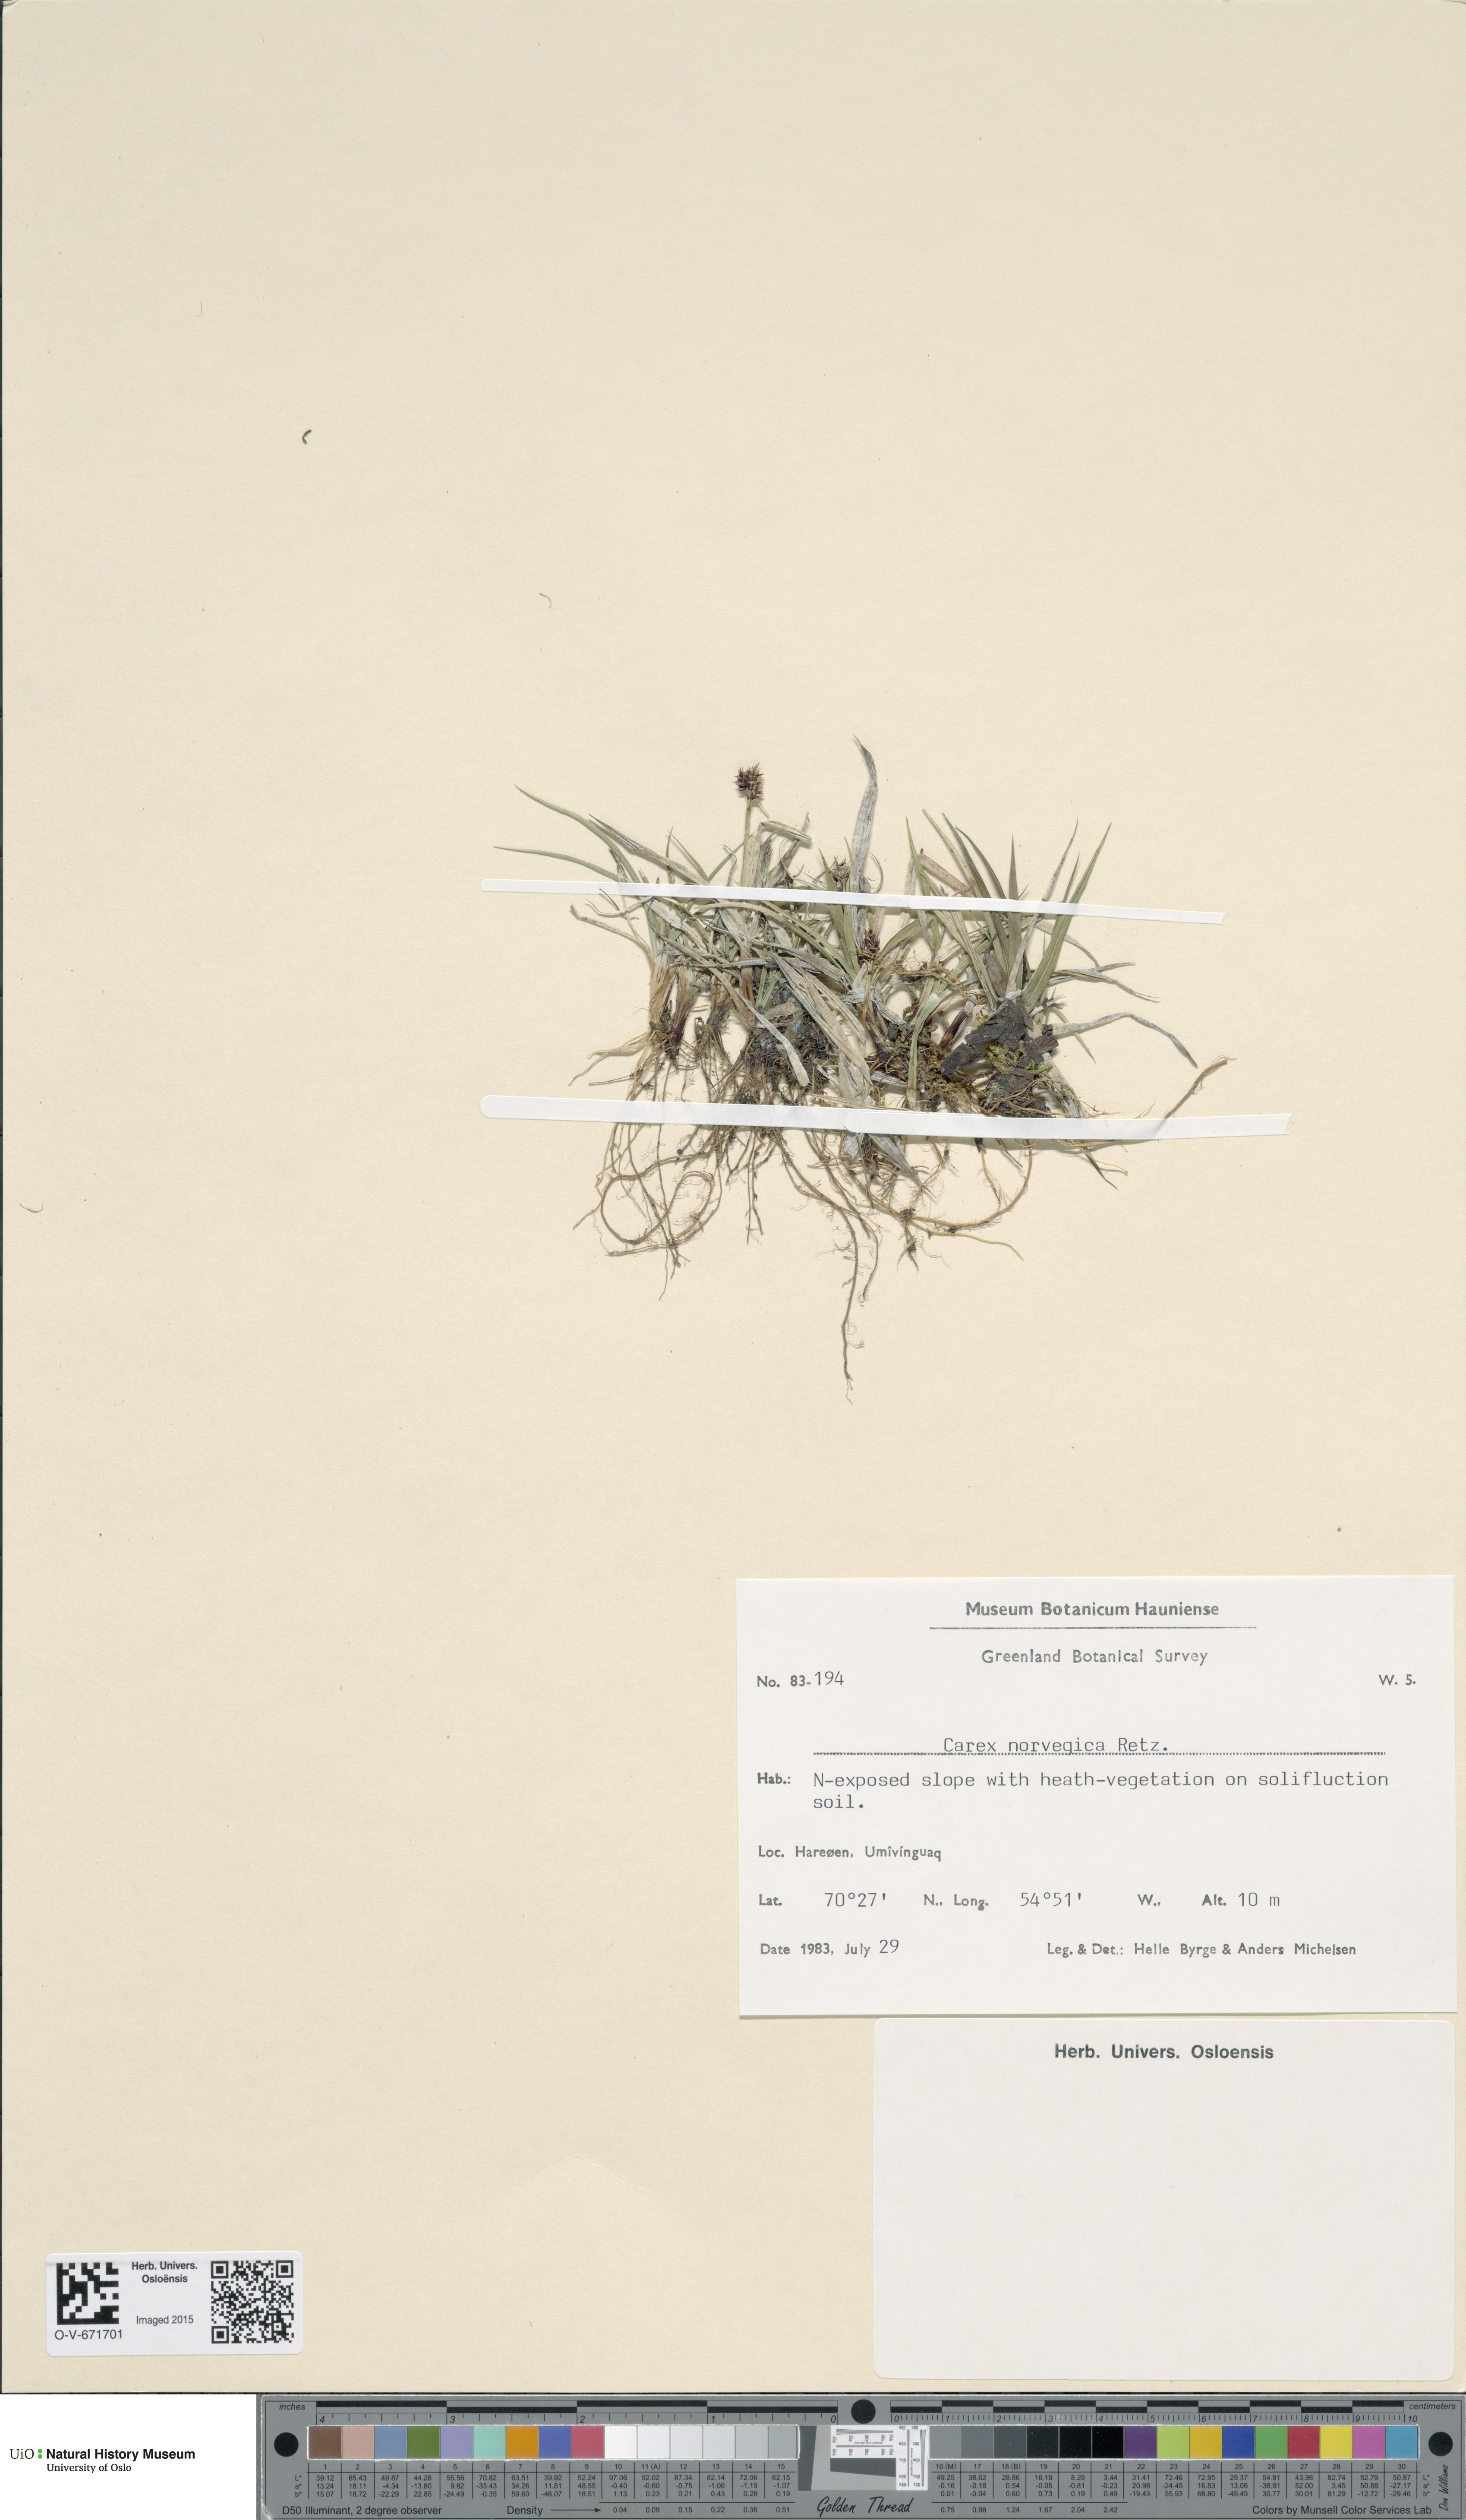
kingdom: Plantae
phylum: Tracheophyta
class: Liliopsida
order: Poales
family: Cyperaceae
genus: Carex
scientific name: Carex norvegica
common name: Close-headed alpine-sedge
